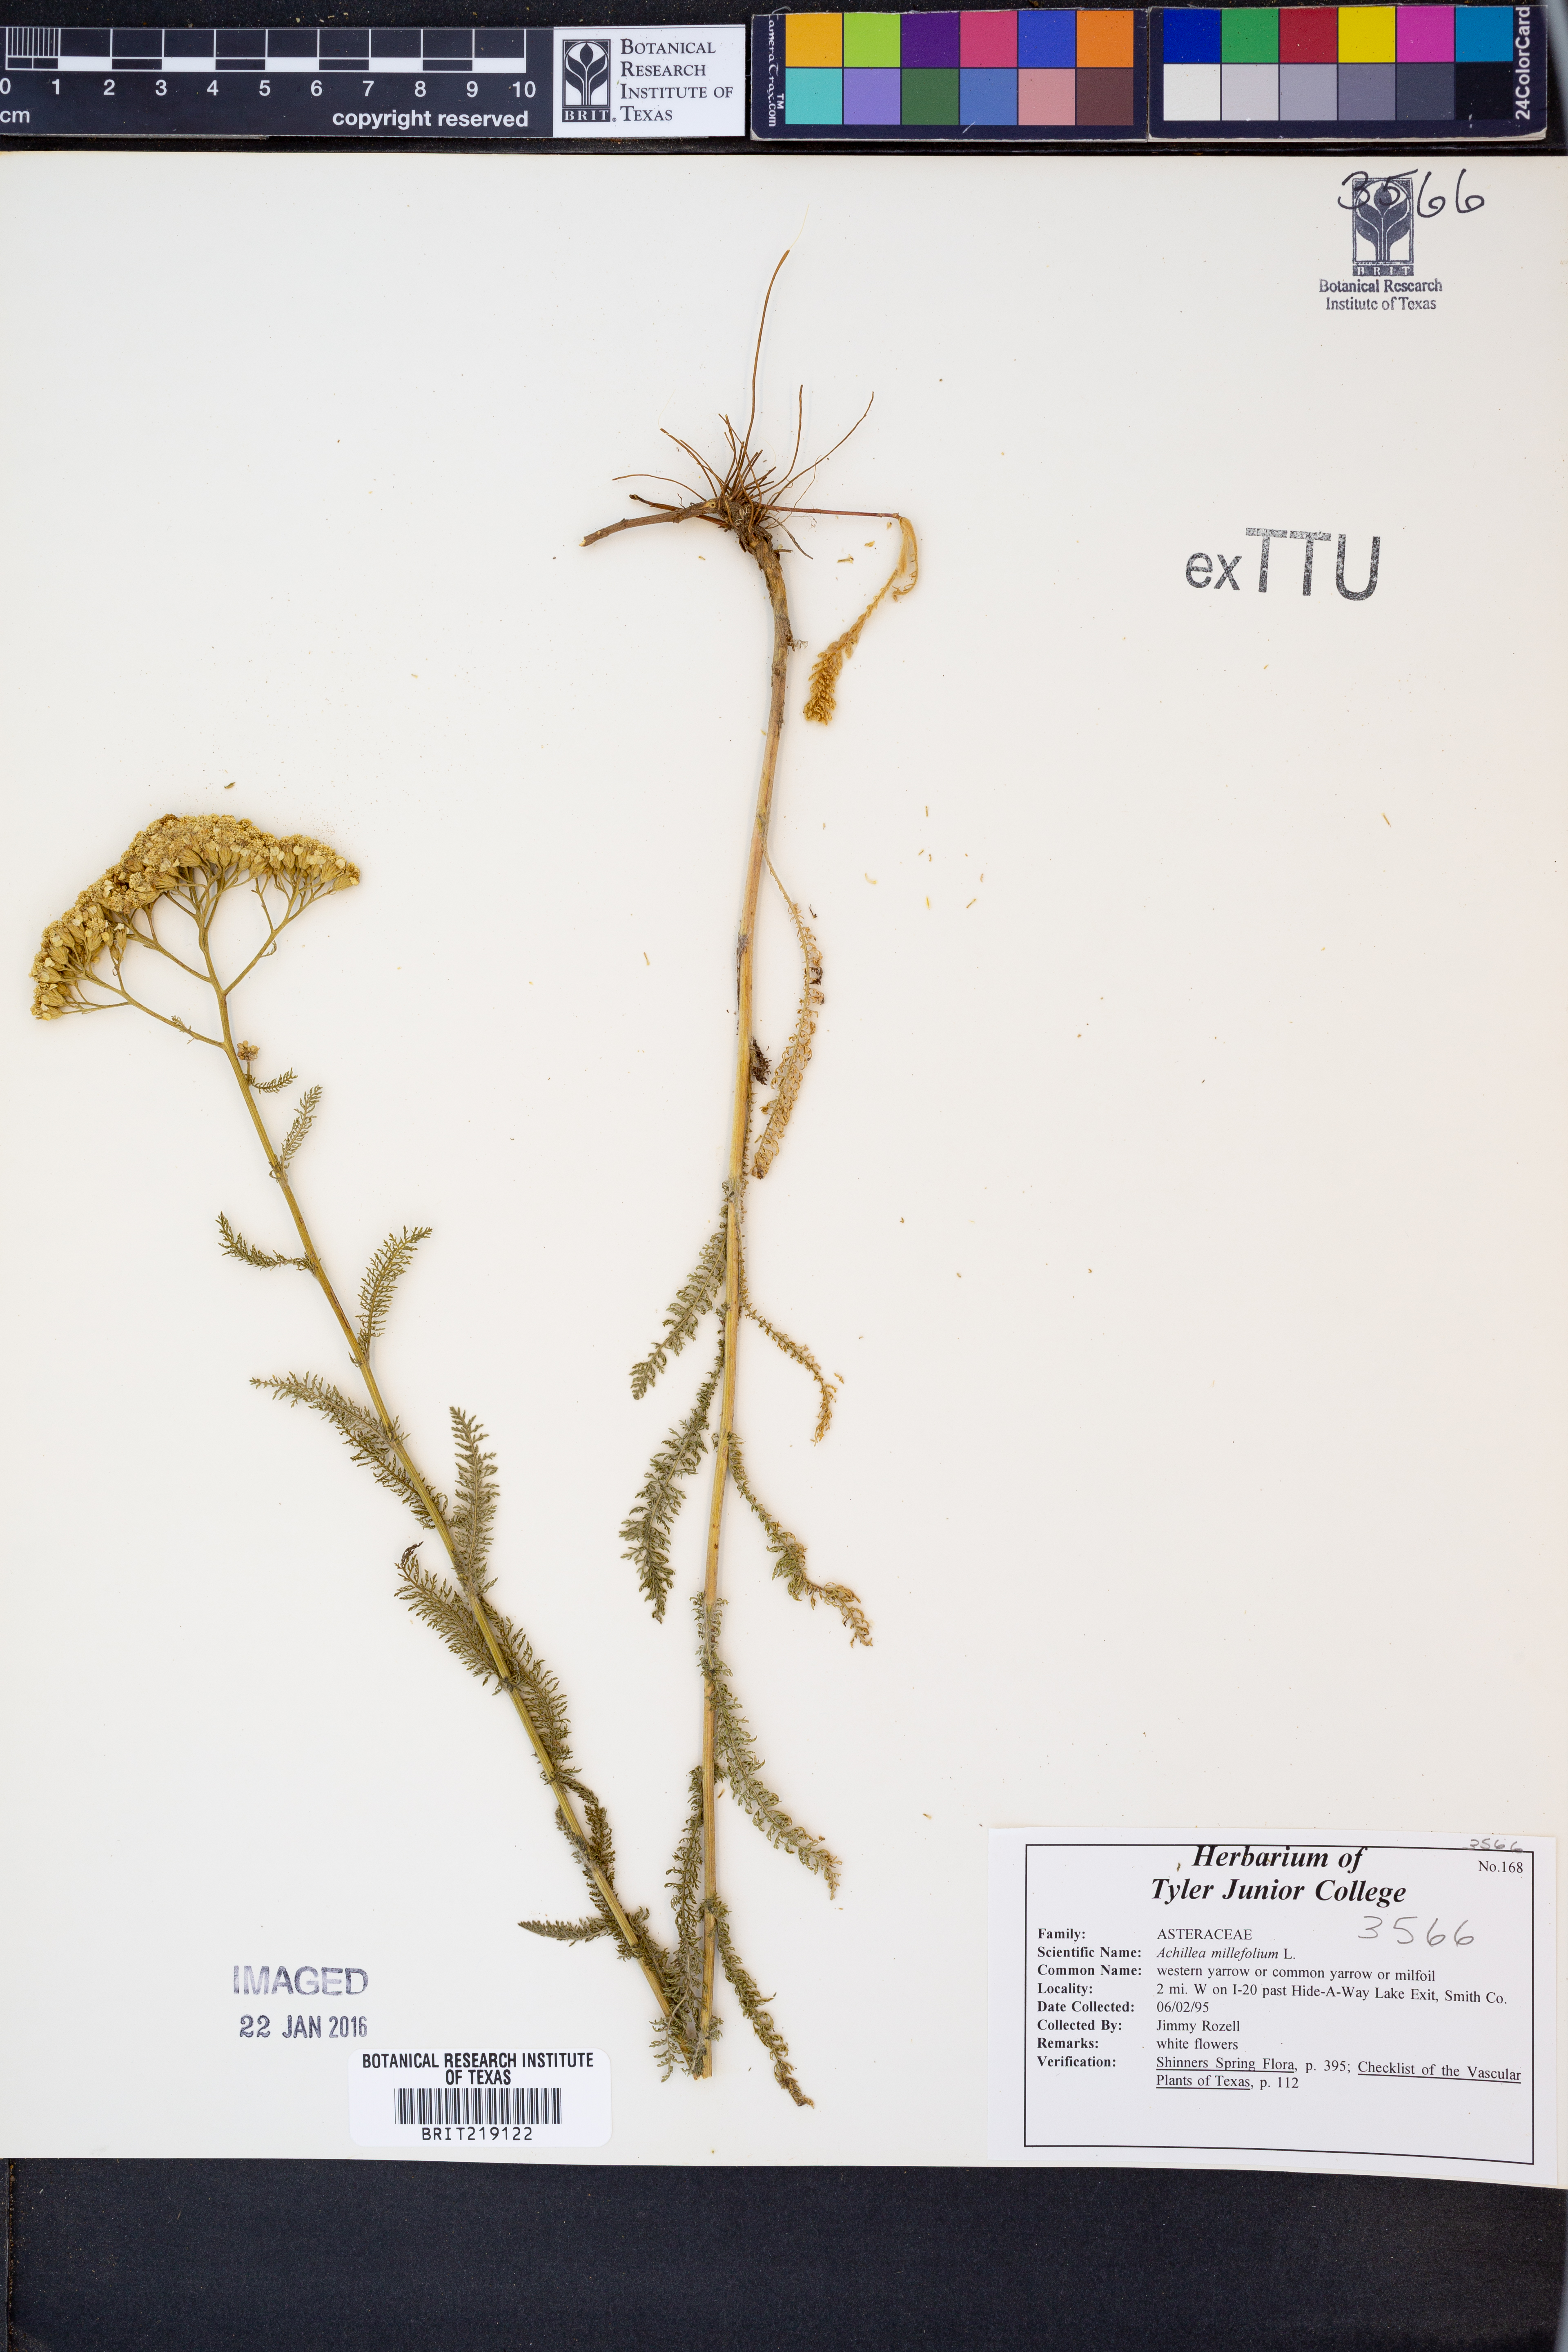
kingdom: Plantae
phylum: Tracheophyta
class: Magnoliopsida
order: Asterales
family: Asteraceae
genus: Achillea
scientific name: Achillea millefolium
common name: Yarrow
